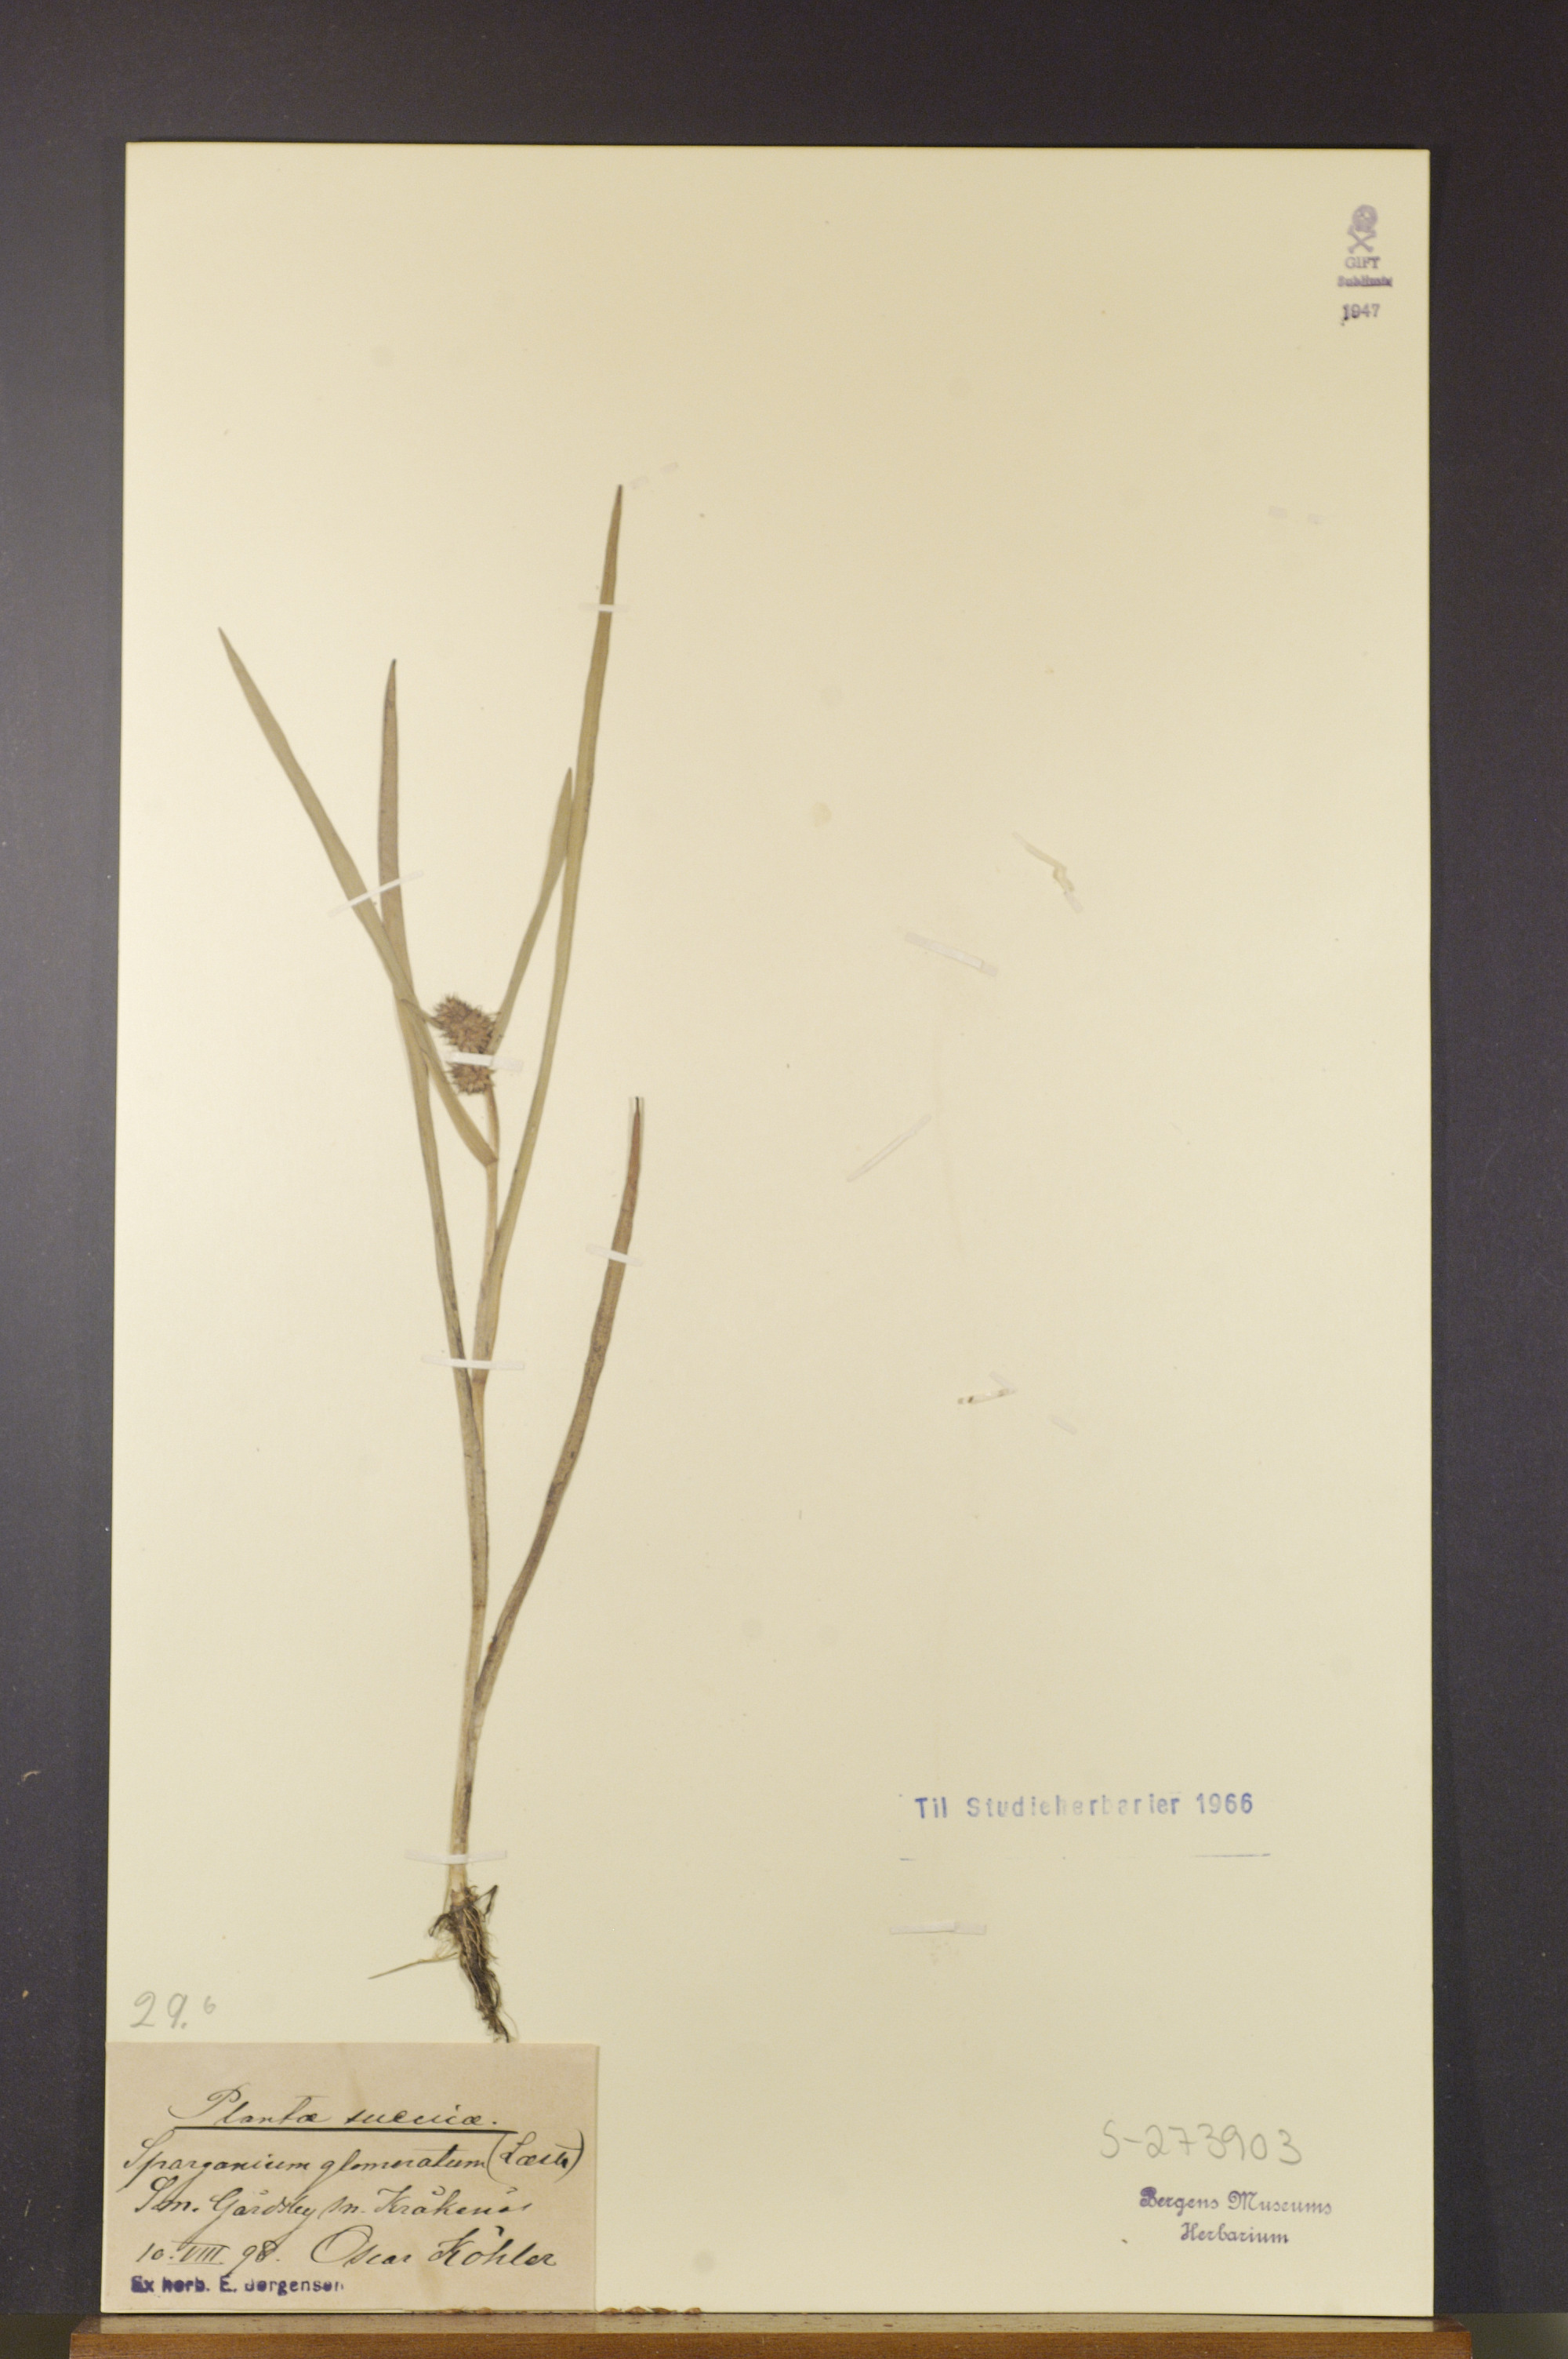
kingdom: Plantae
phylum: Tracheophyta
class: Liliopsida
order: Poales
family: Typhaceae
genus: Sparganium
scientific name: Sparganium glomeratum
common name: Clustered burreed
